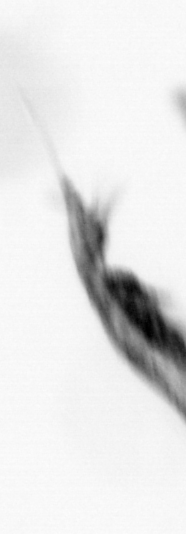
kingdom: Animalia
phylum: Arthropoda
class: Copepoda
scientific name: Copepoda
